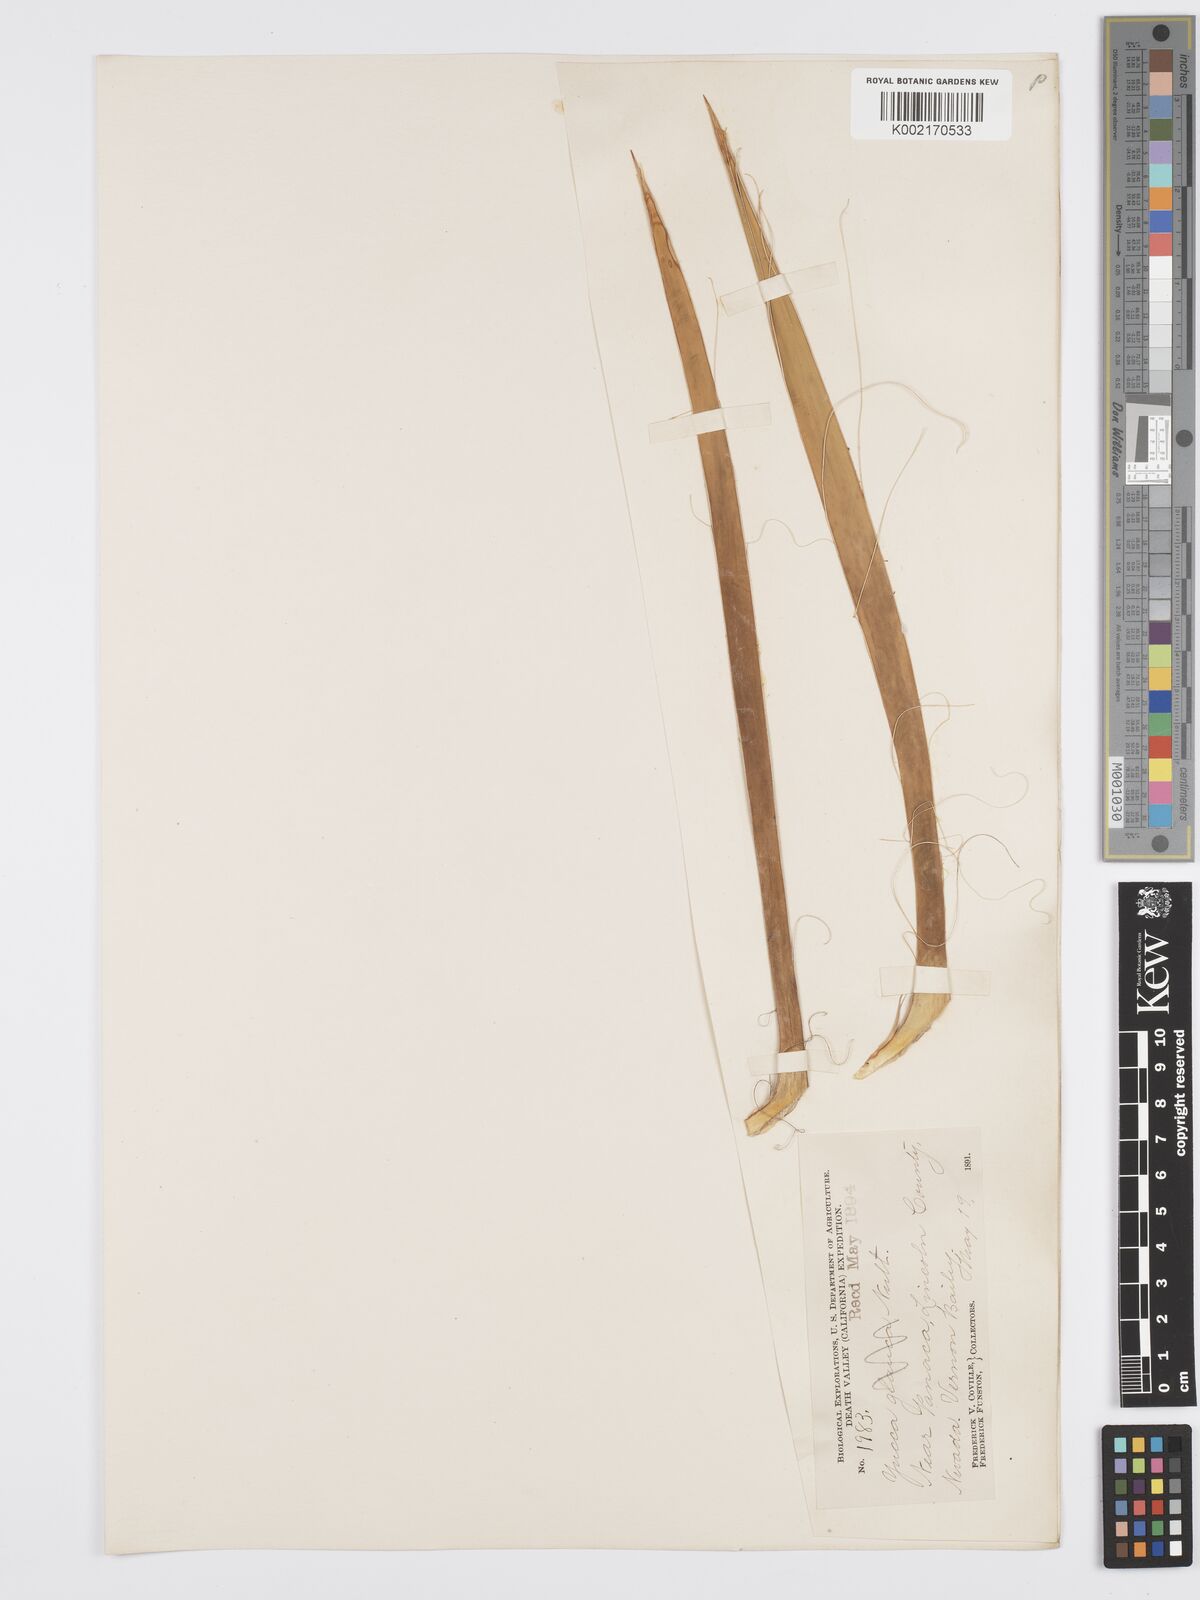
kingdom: Plantae
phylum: Tracheophyta
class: Liliopsida
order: Asparagales
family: Asparagaceae
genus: Yucca
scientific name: Yucca
